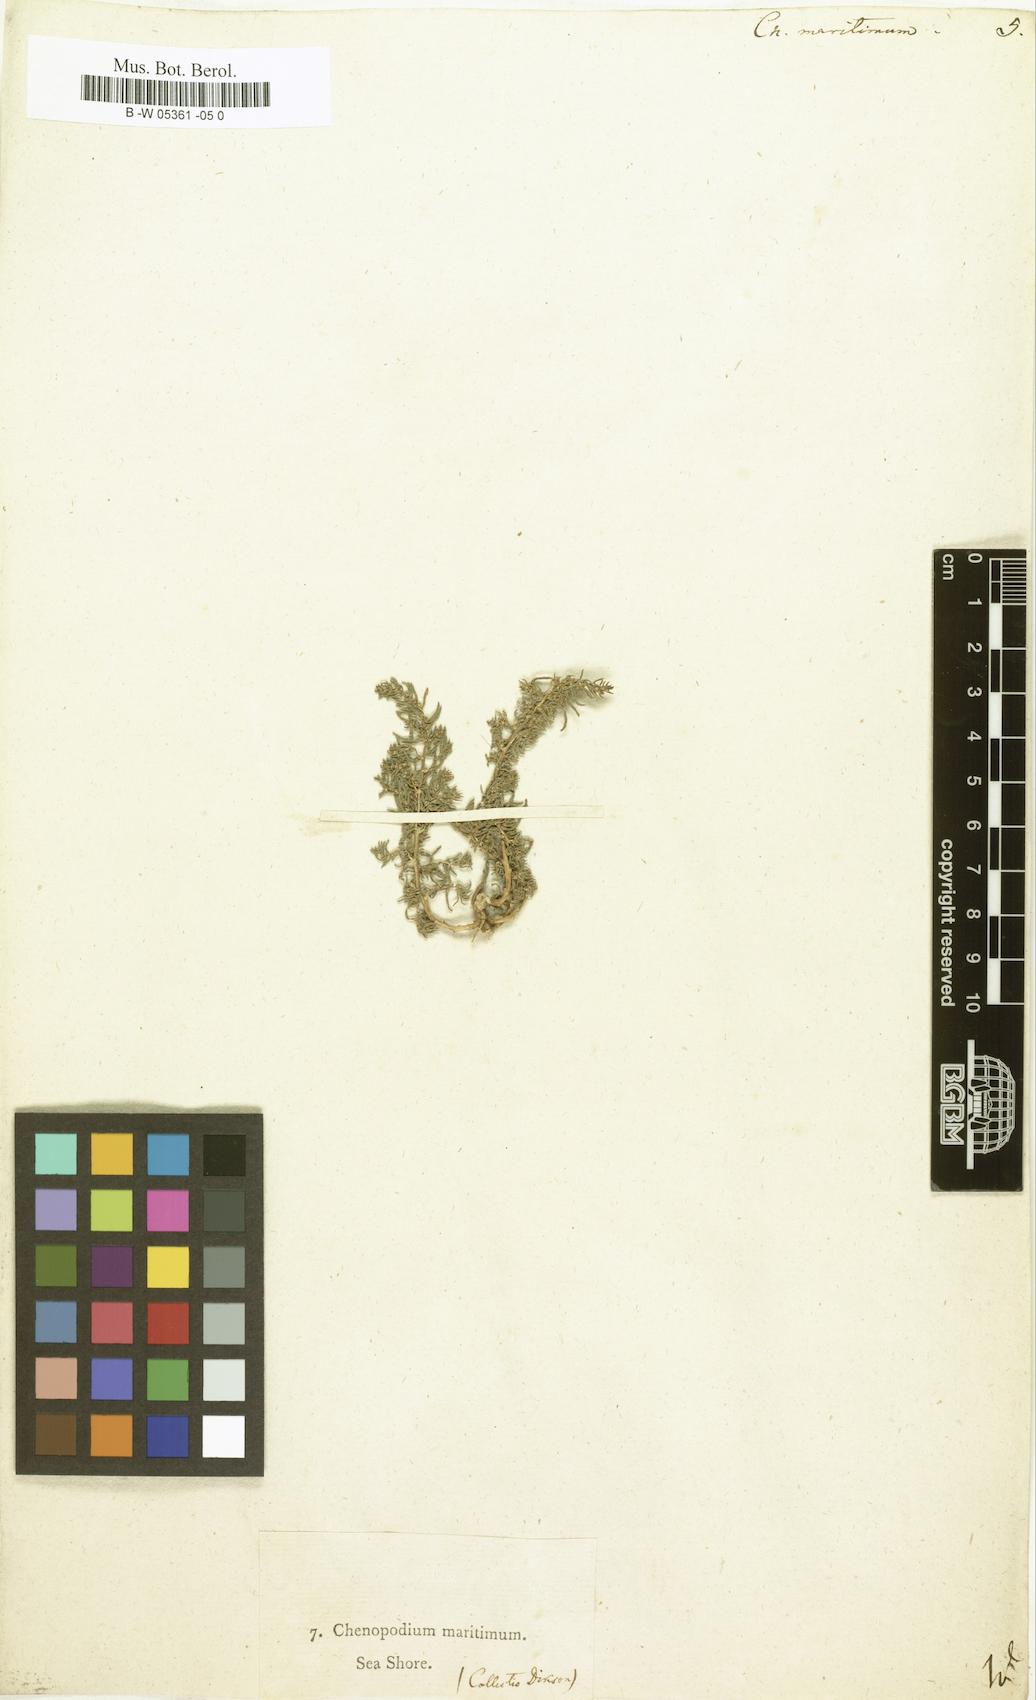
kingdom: Plantae
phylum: Tracheophyta
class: Magnoliopsida
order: Caryophyllales
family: Amaranthaceae
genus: Suaeda
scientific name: Suaeda
